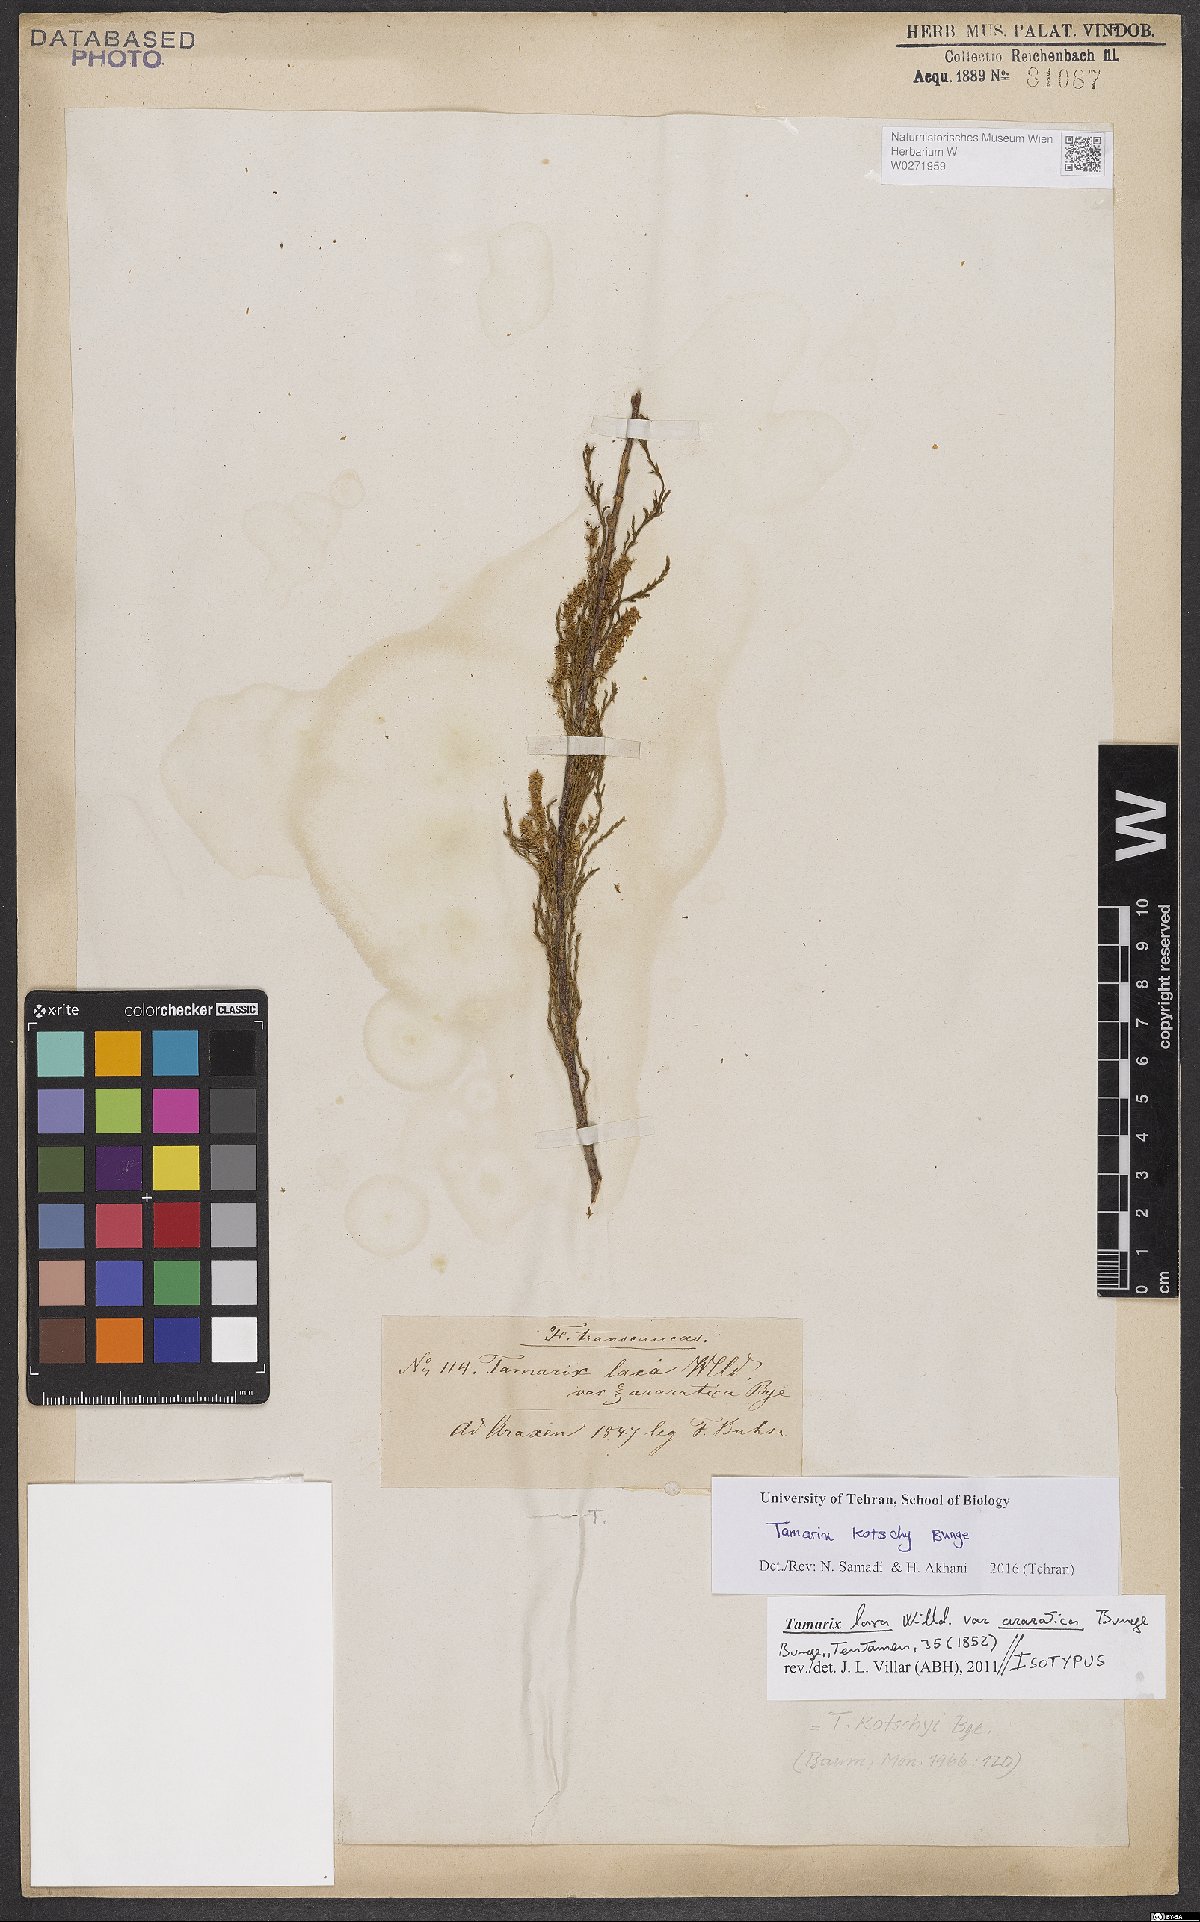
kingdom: Plantae
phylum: Tracheophyta
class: Magnoliopsida
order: Caryophyllales
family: Tamaricaceae
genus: Tamarix
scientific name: Tamarix litwinowii
